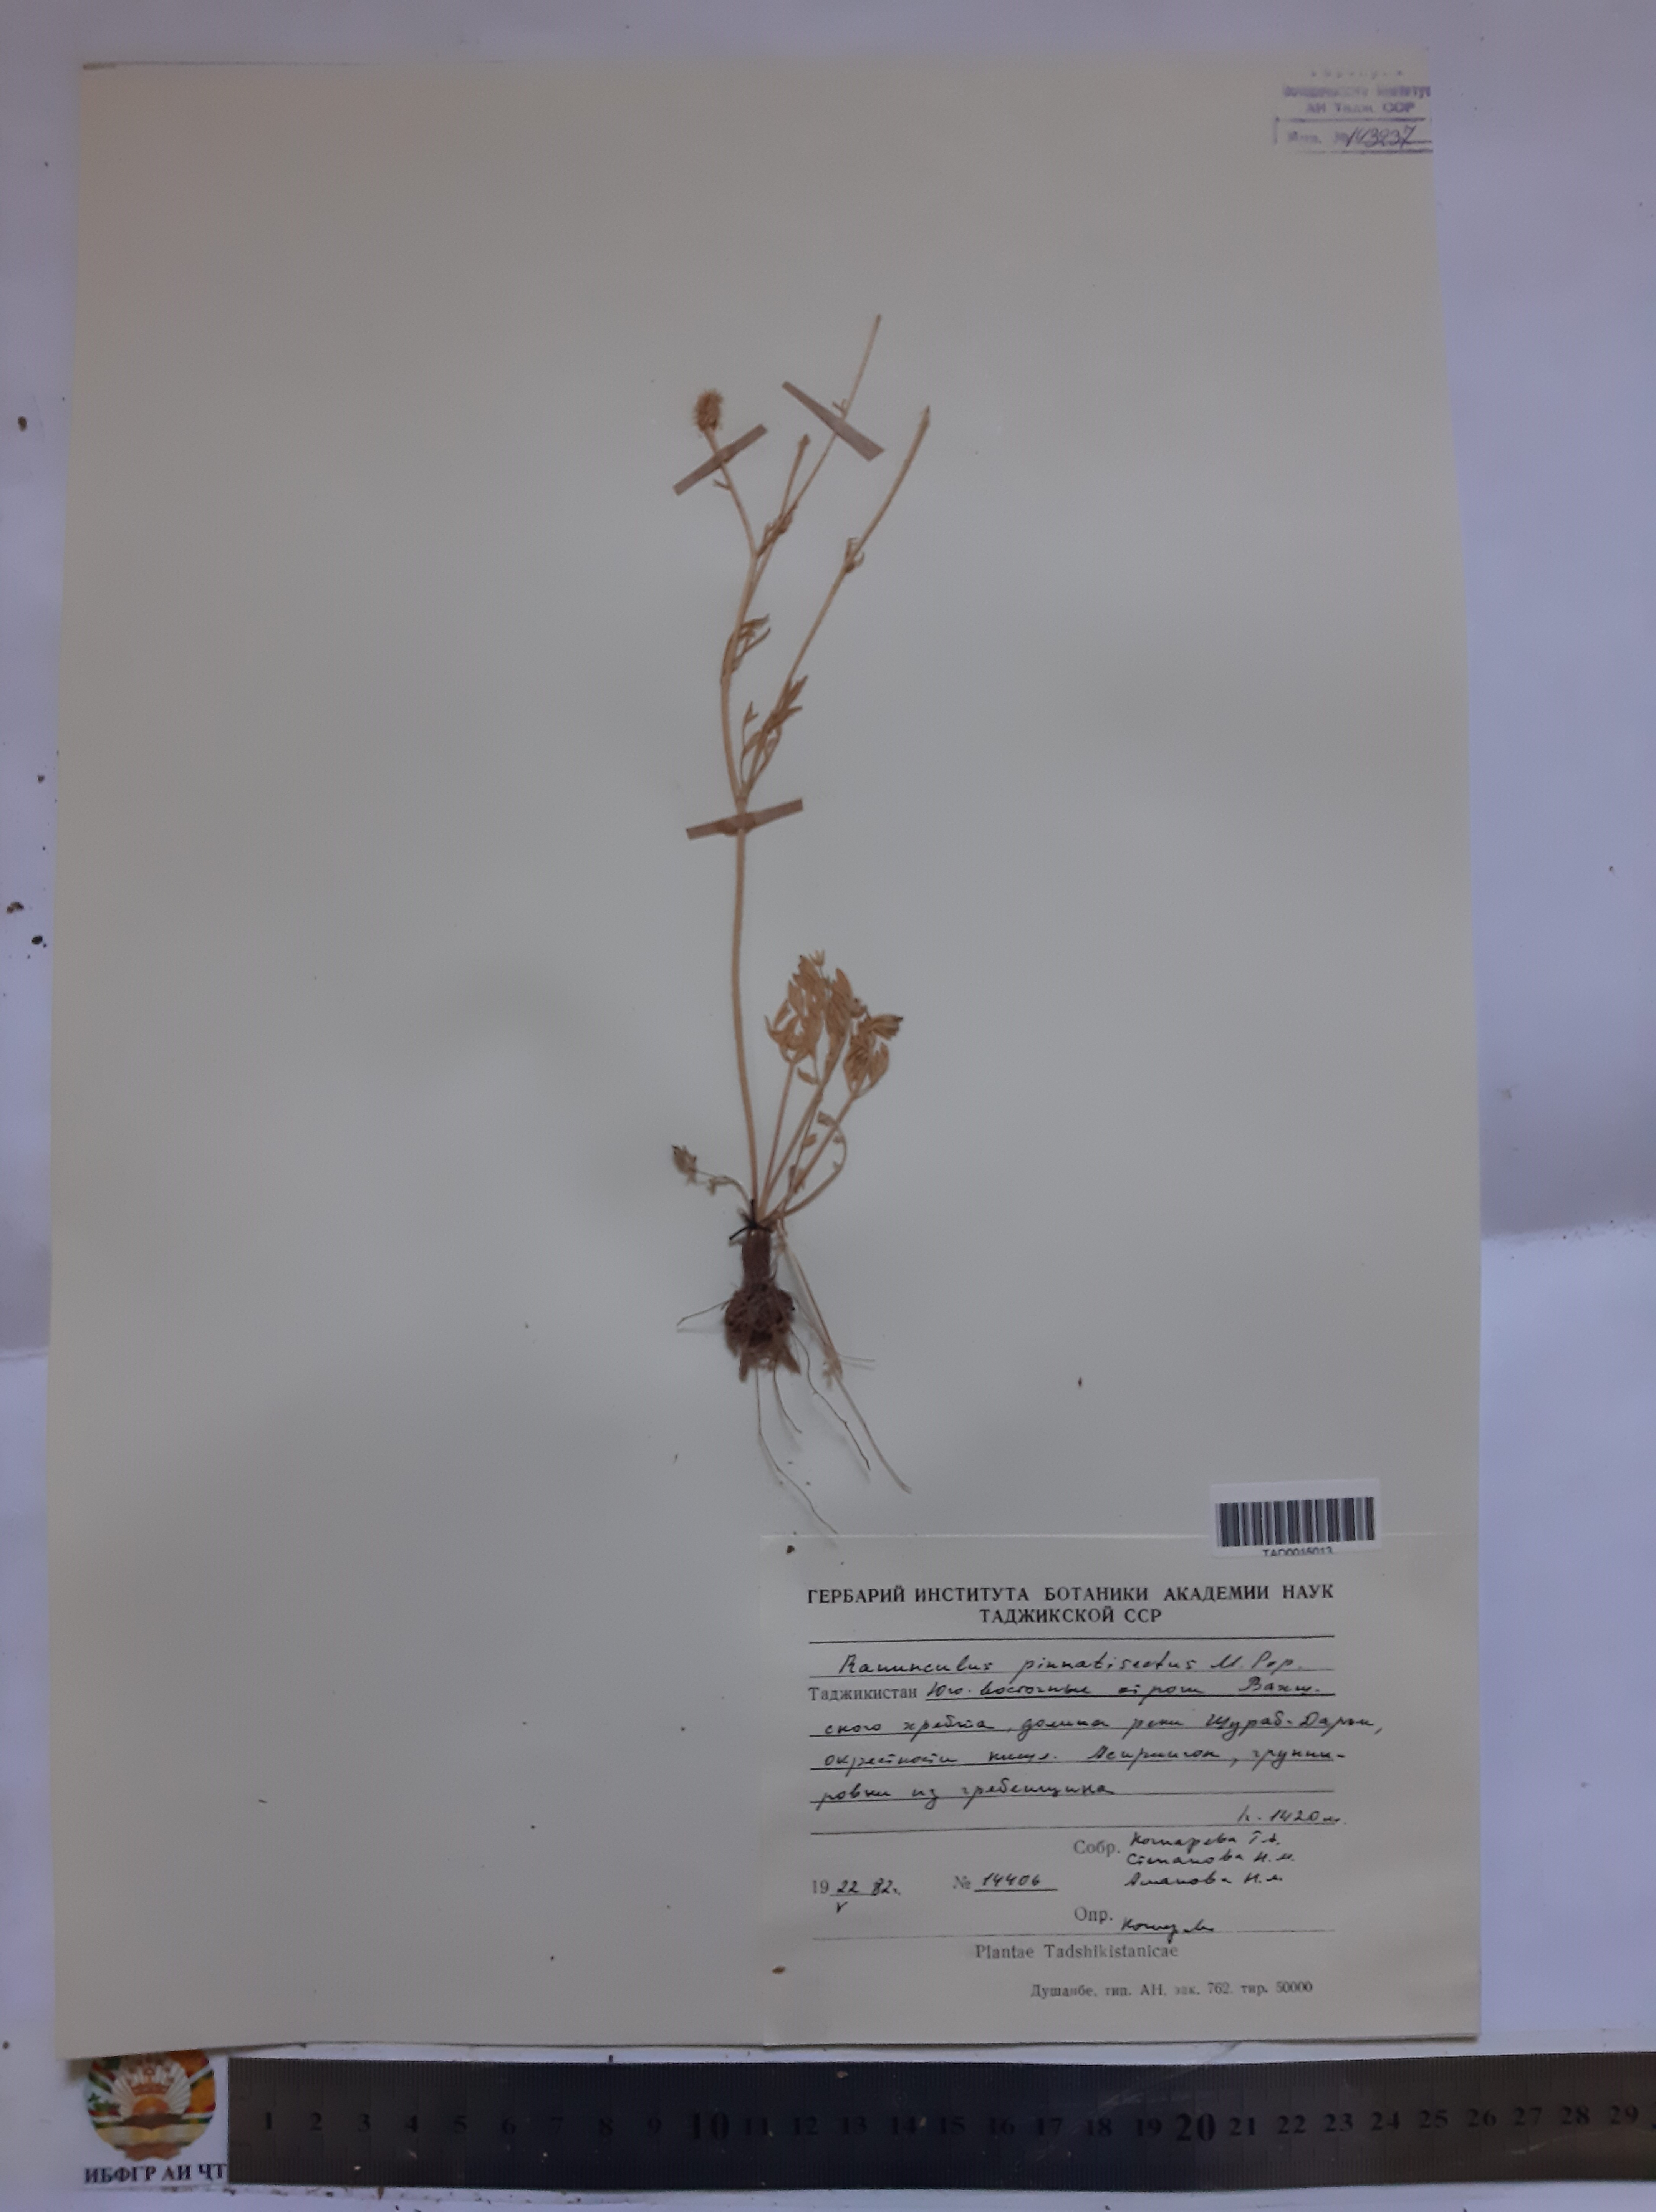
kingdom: Plantae
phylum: Tracheophyta
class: Magnoliopsida
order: Ranunculales
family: Ranunculaceae
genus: Ranunculus
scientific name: Ranunculus pinnatisectus
